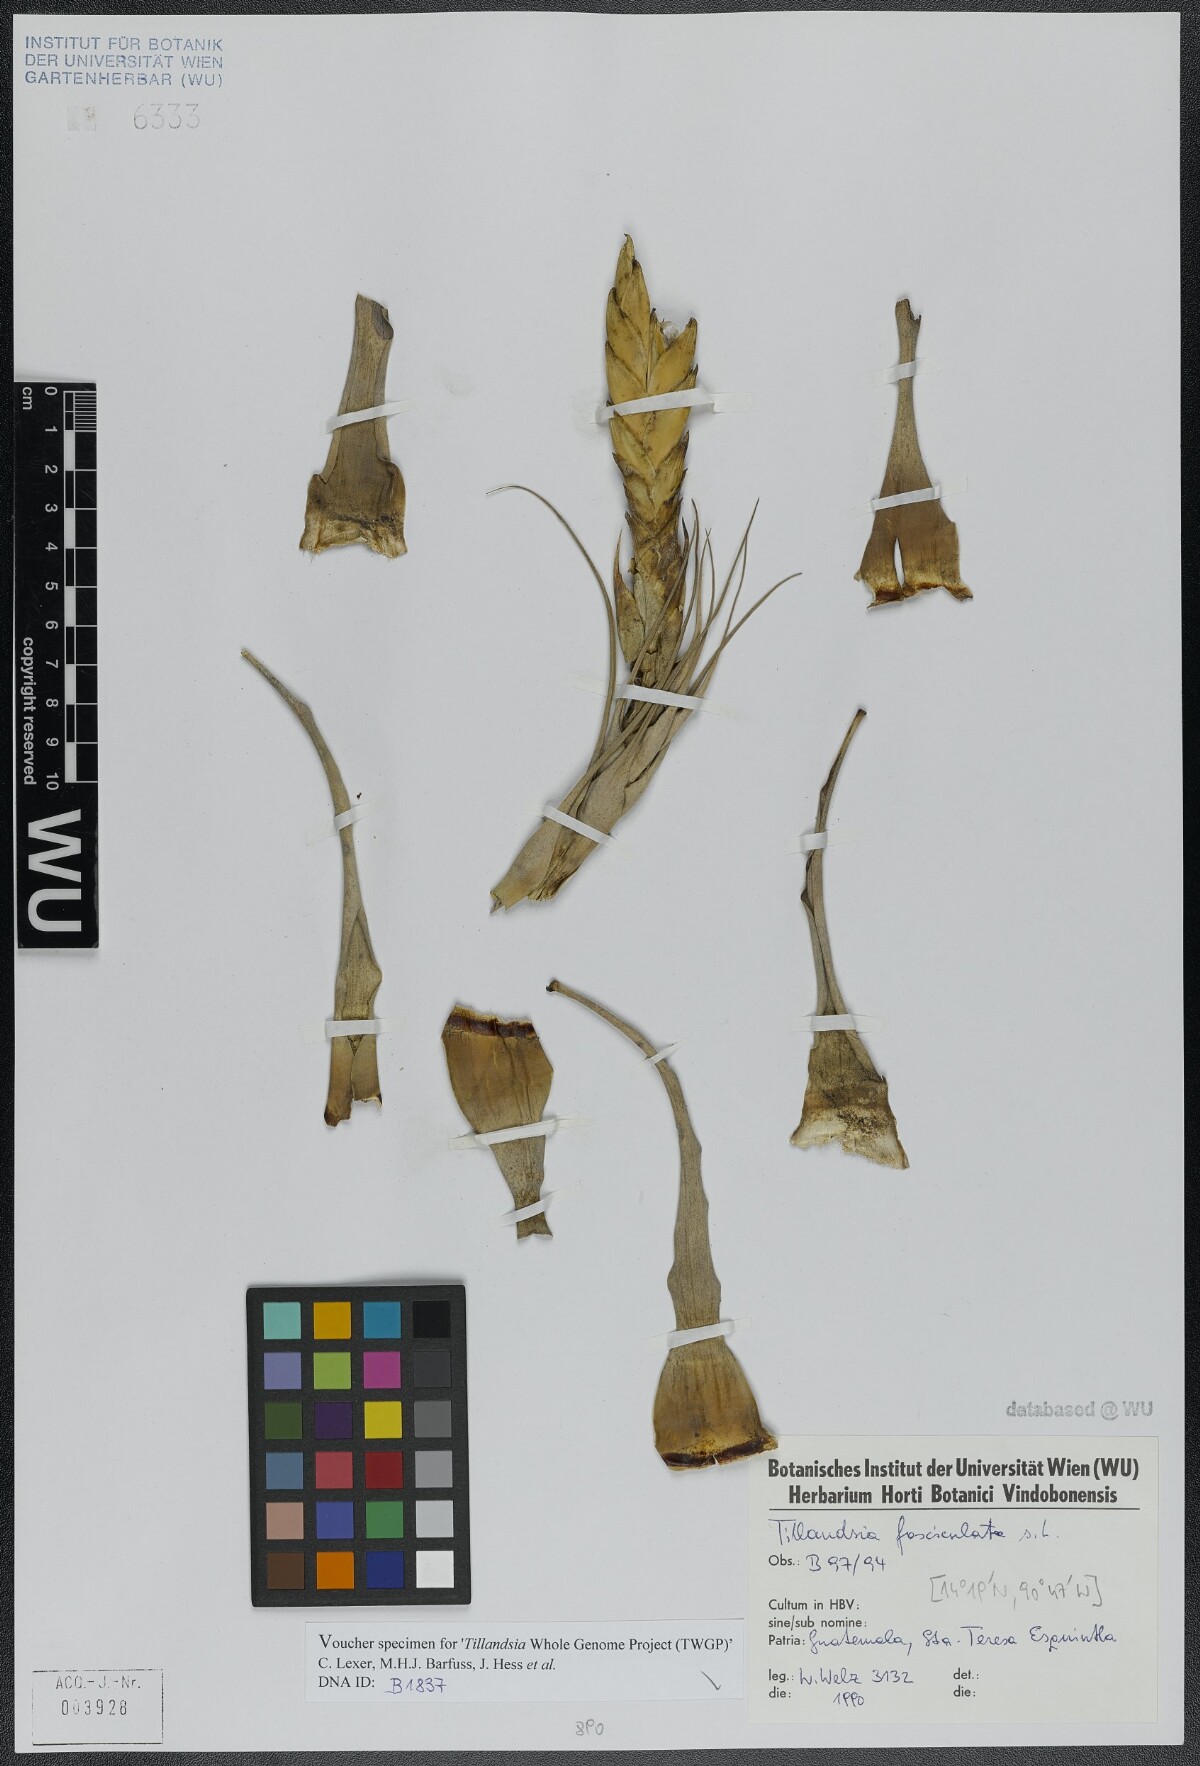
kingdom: Plantae
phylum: Tracheophyta
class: Liliopsida
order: Poales
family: Bromeliaceae
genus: Tillandsia
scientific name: Tillandsia fasciculata
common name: Giant airplant
